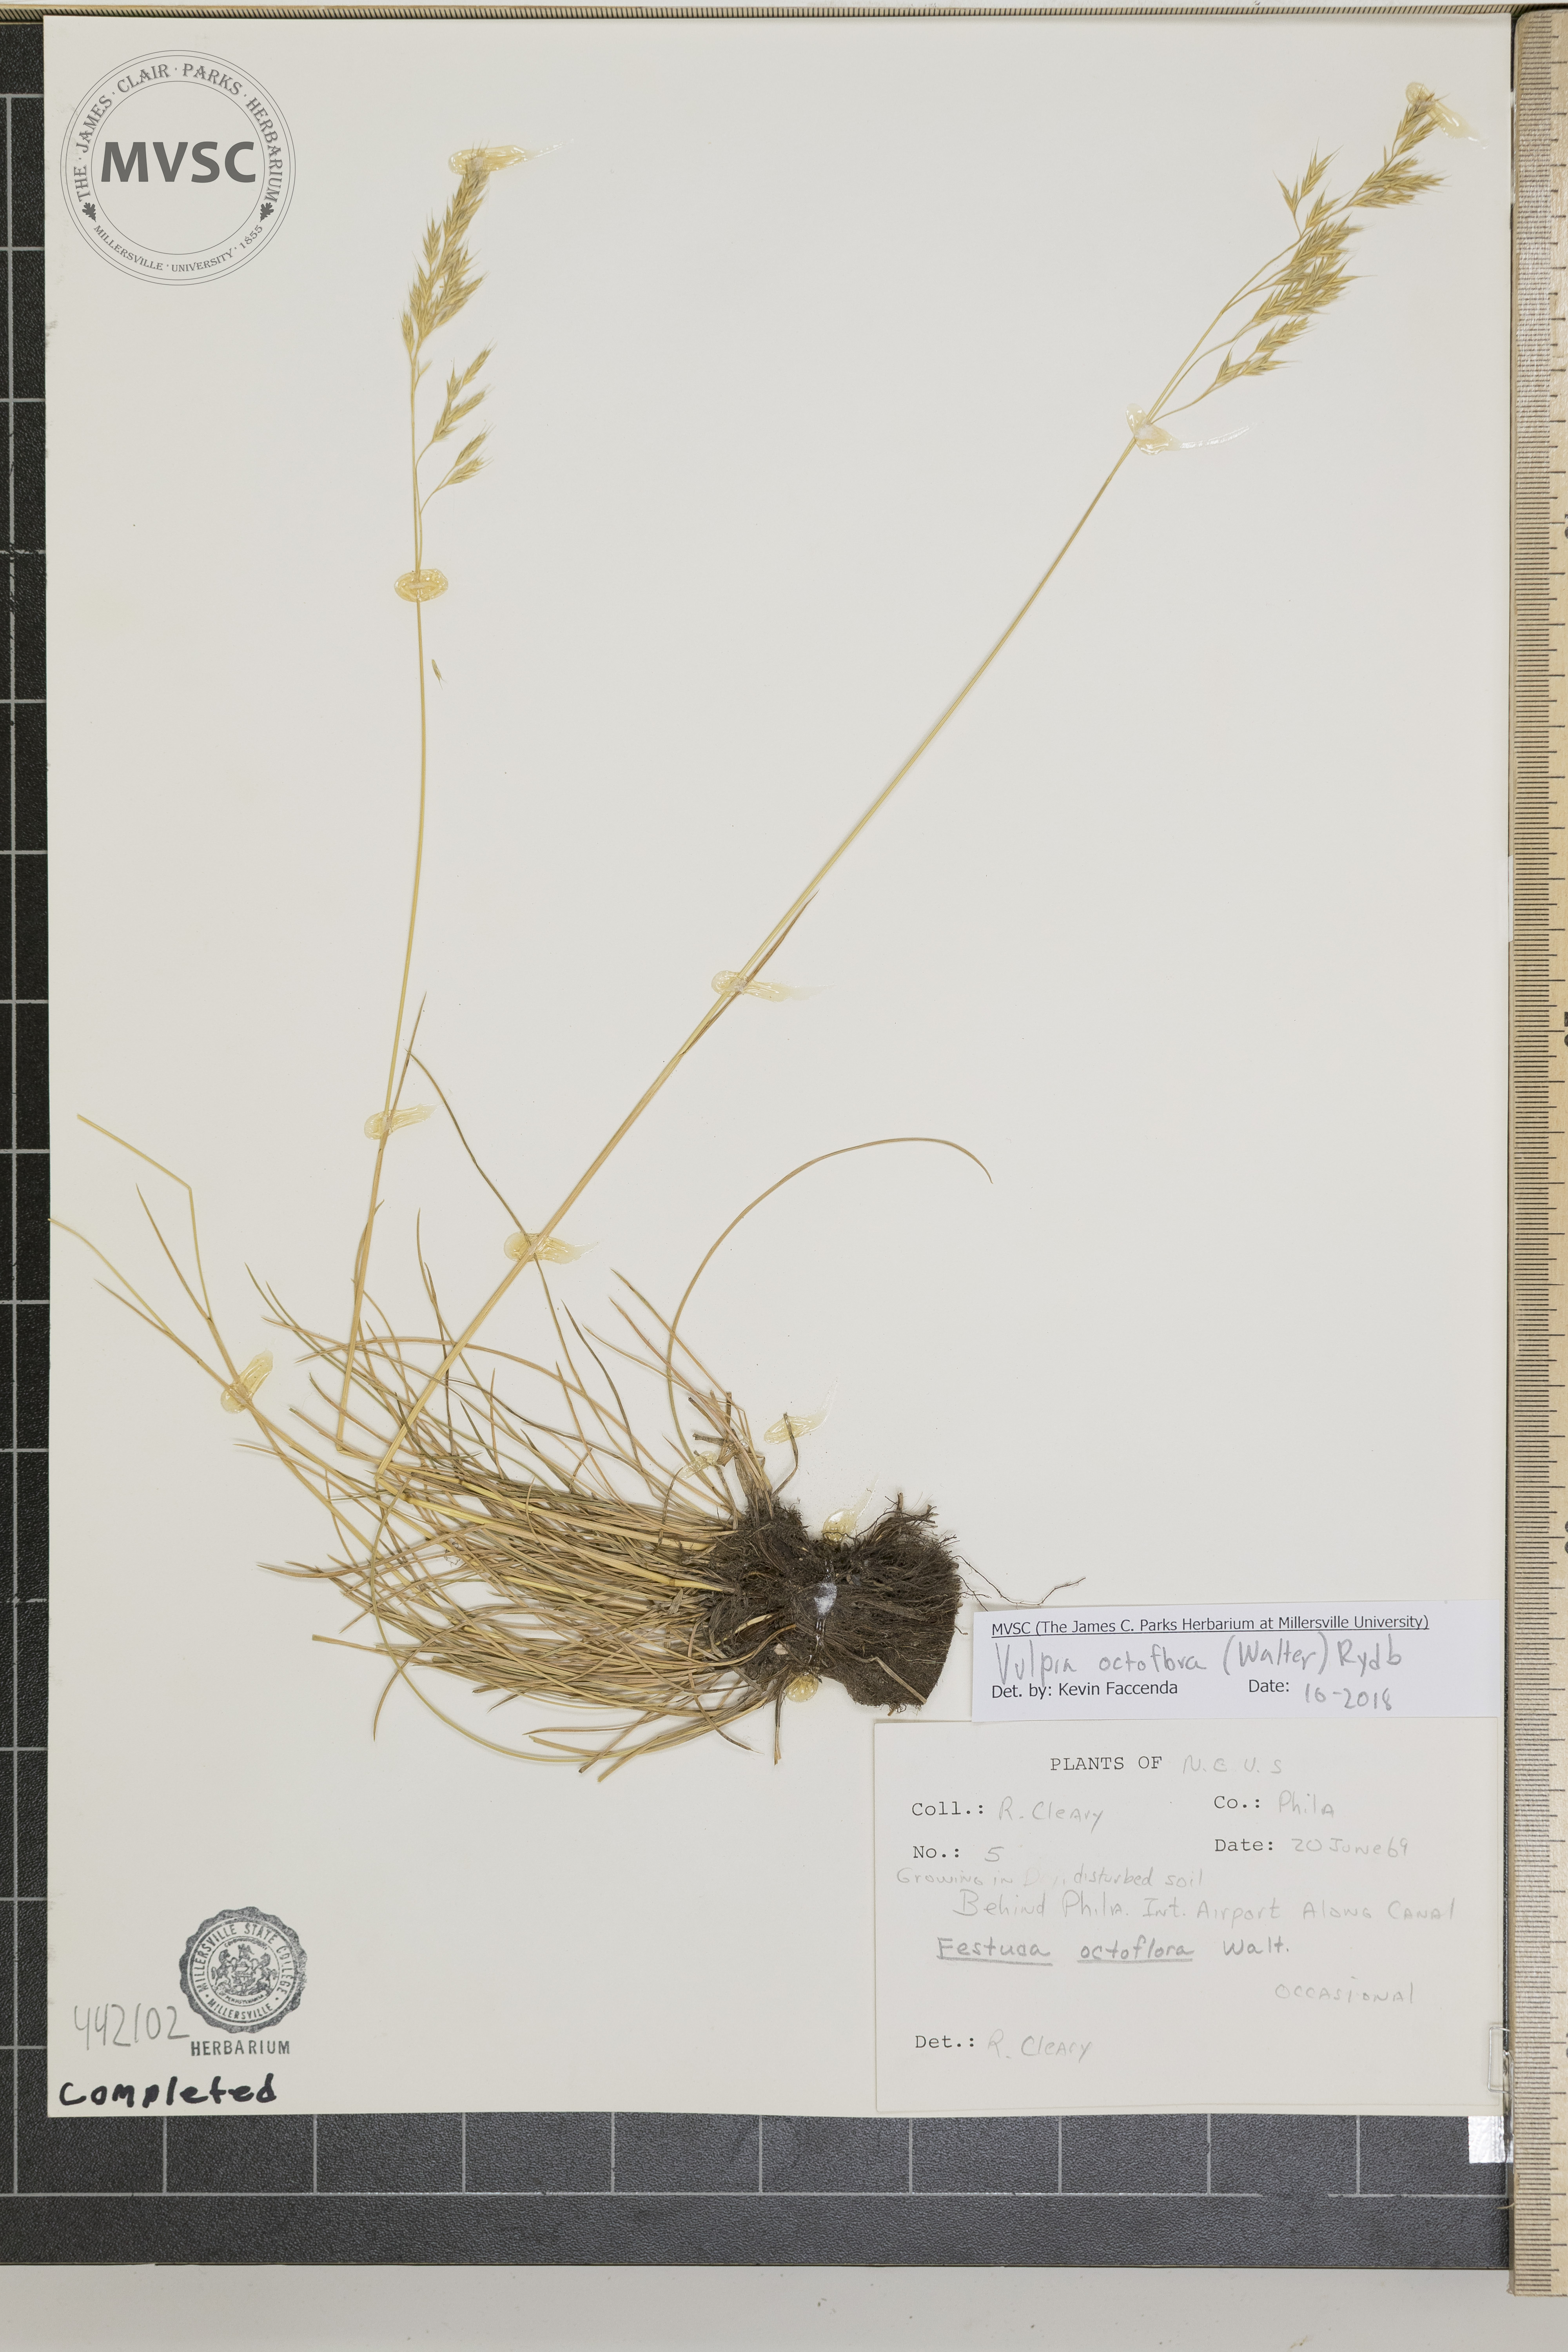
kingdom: Plantae
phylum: Tracheophyta
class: Liliopsida
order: Poales
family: Poaceae
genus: Festuca
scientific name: Festuca octoflora
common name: Sixweeks grass
